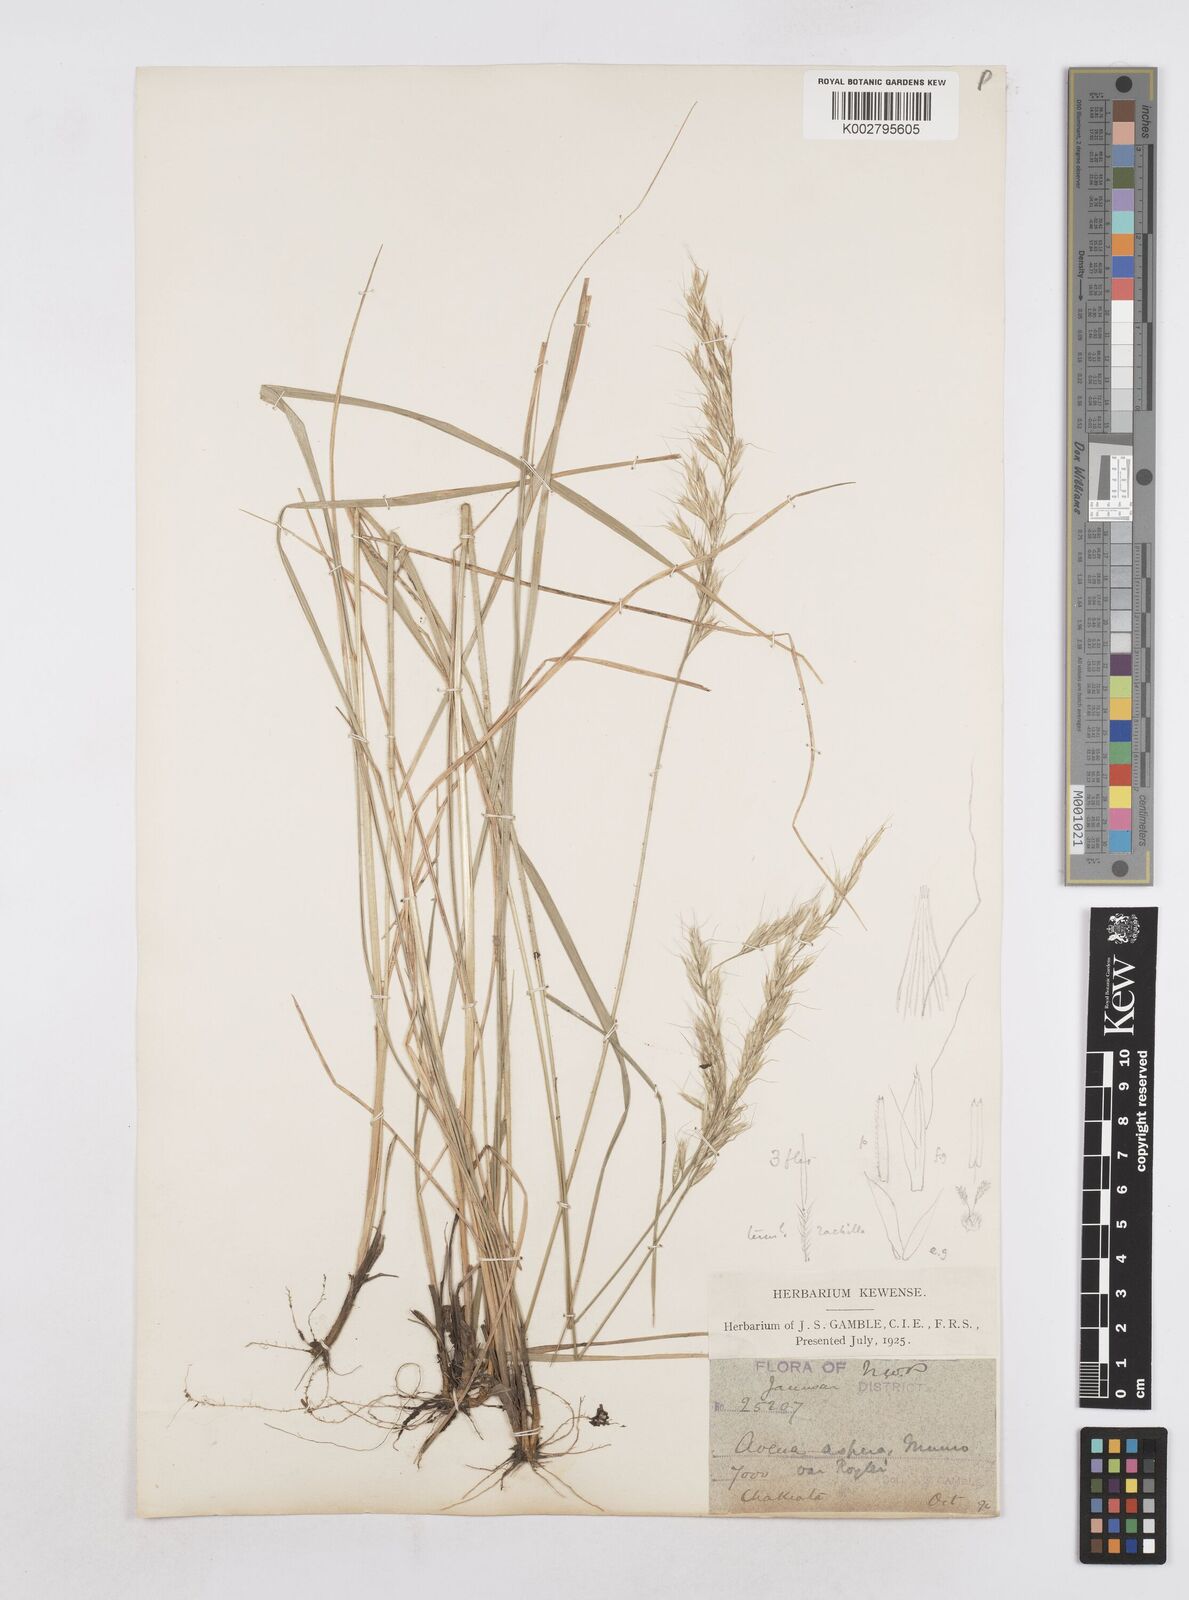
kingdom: Plantae
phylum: Tracheophyta
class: Liliopsida
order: Poales
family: Poaceae
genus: Helictotrichon
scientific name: Helictotrichon
